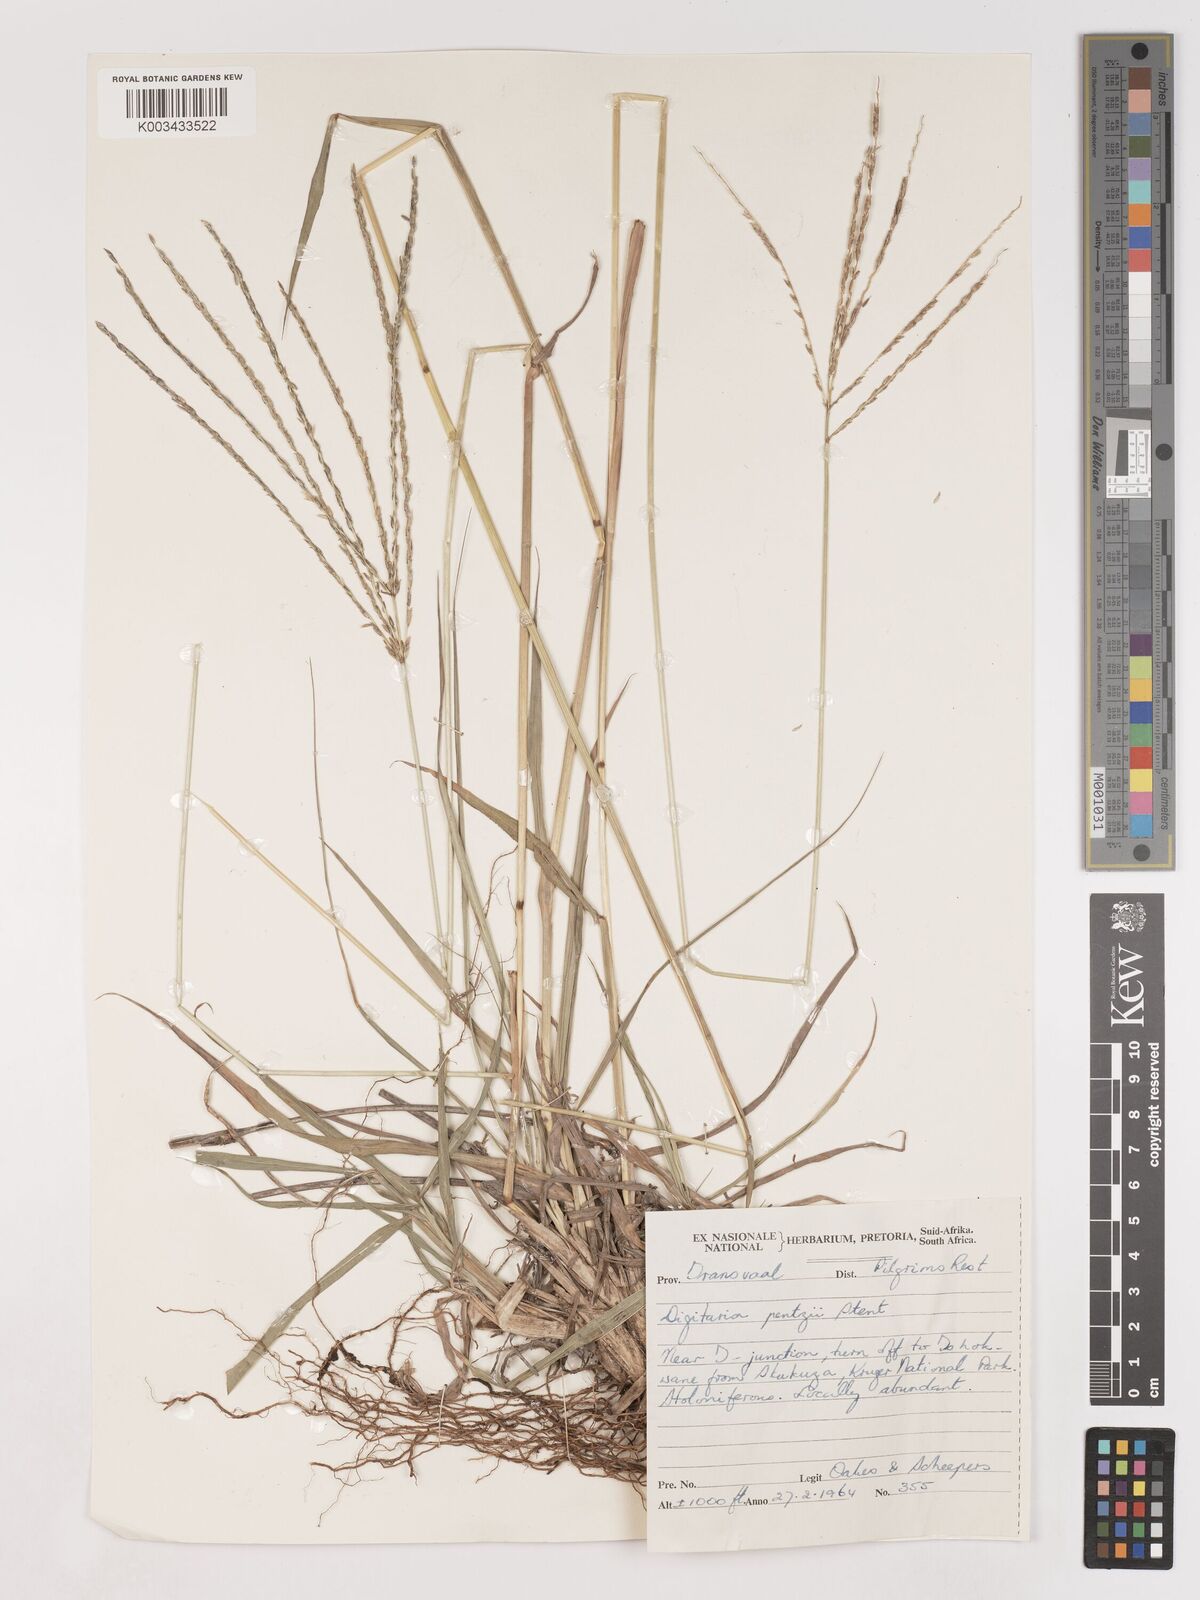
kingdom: Plantae
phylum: Tracheophyta
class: Liliopsida
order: Poales
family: Poaceae
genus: Digitaria
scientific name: Digitaria eriantha
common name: Digitgrass
